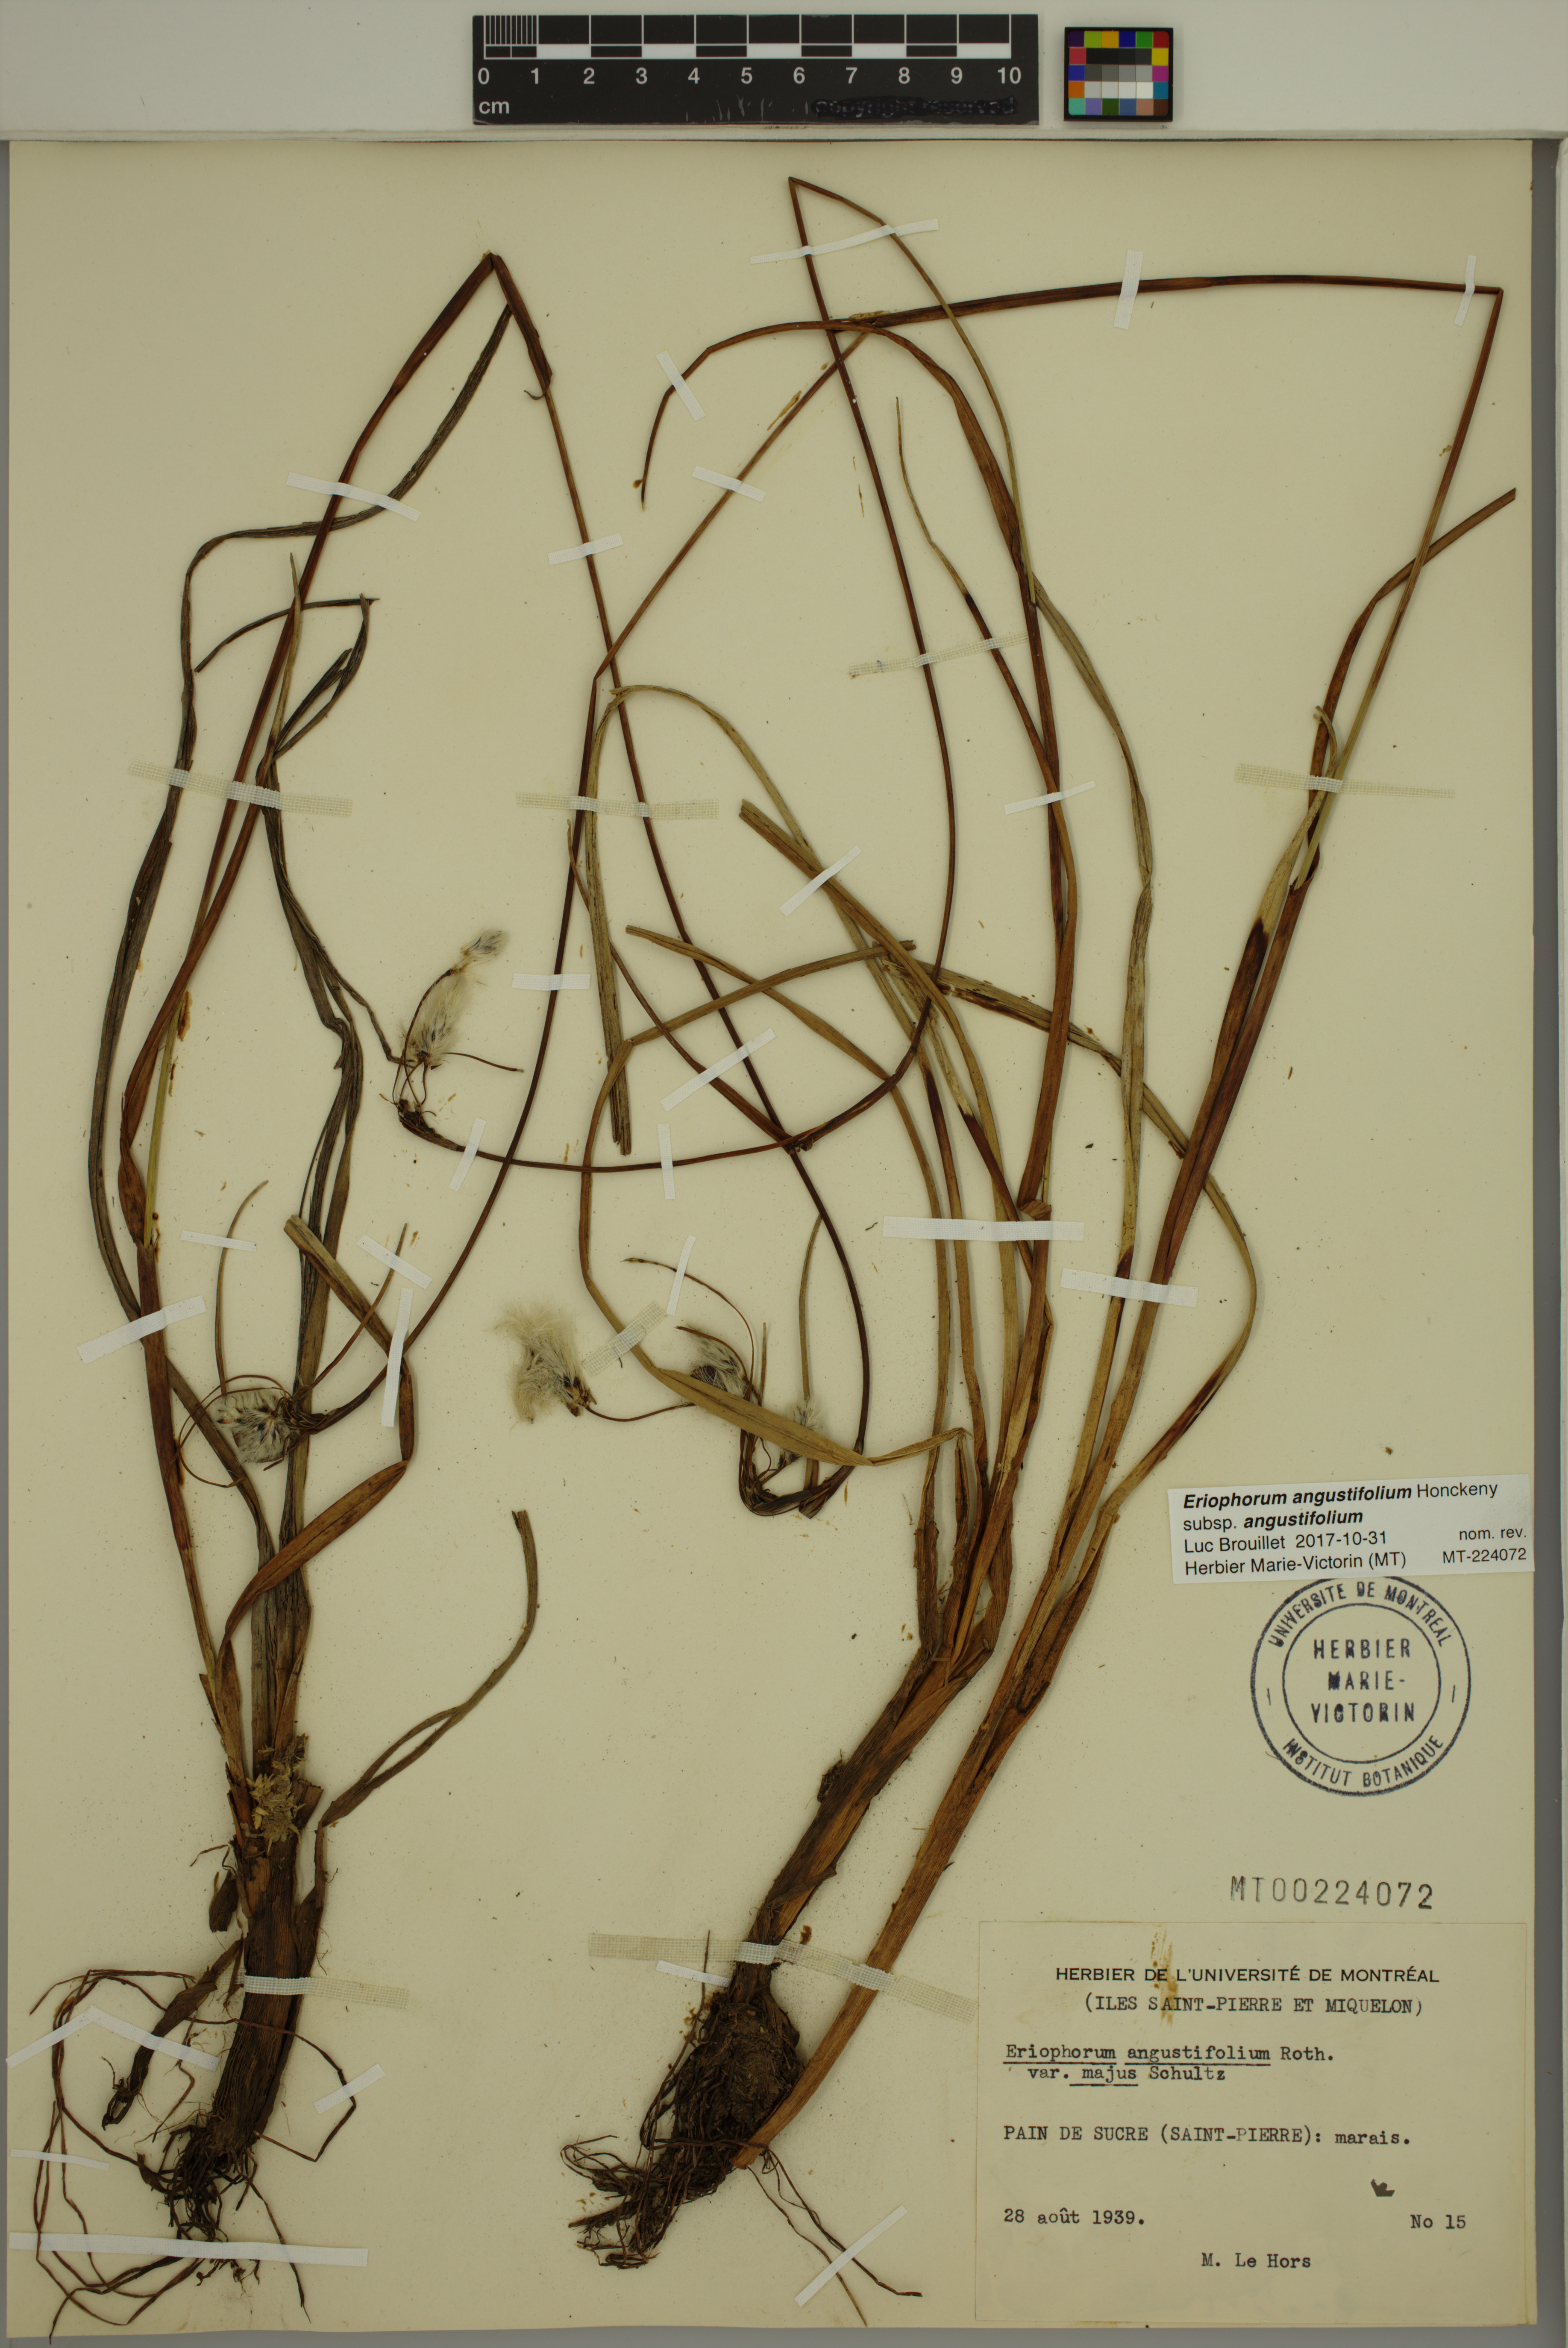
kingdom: Plantae
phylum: Tracheophyta
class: Liliopsida
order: Poales
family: Cyperaceae
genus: Eriophorum
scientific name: Eriophorum angustifolium
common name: Common cottongrass
